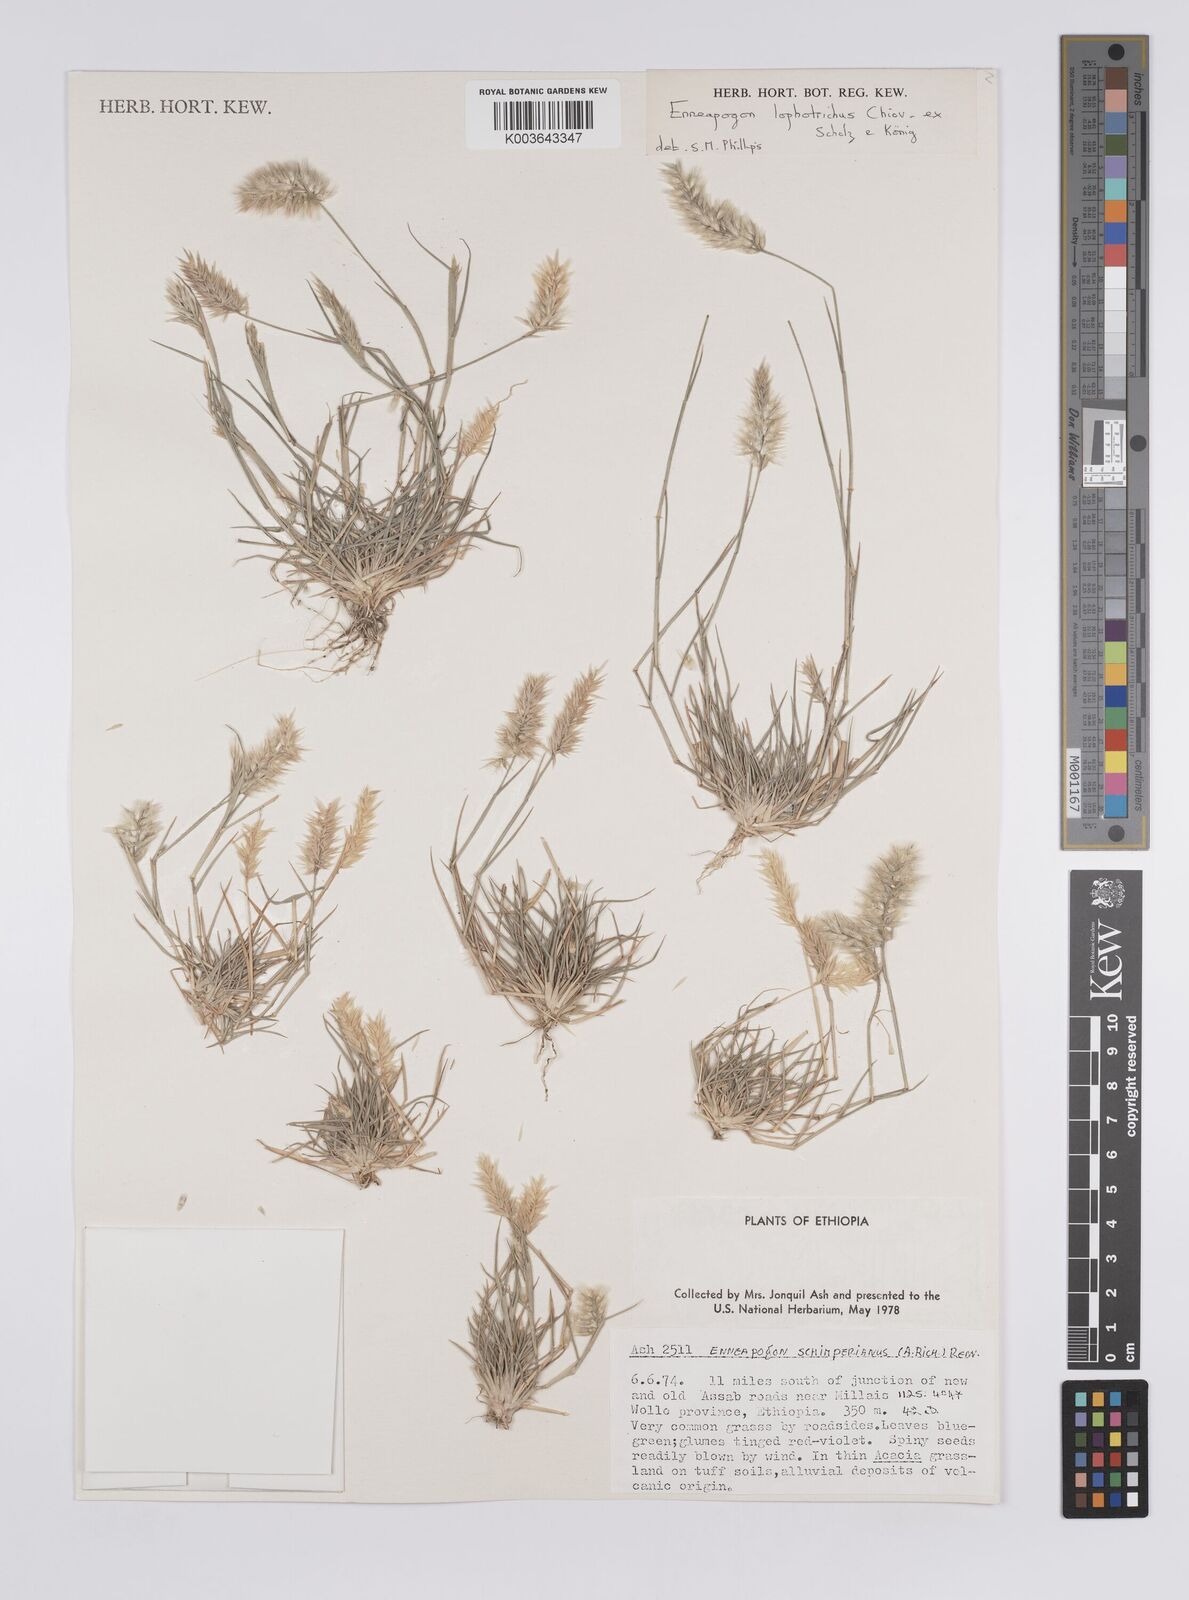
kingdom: Plantae
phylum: Tracheophyta
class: Liliopsida
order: Poales
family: Poaceae
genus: Enneapogon
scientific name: Enneapogon lophotrichus
